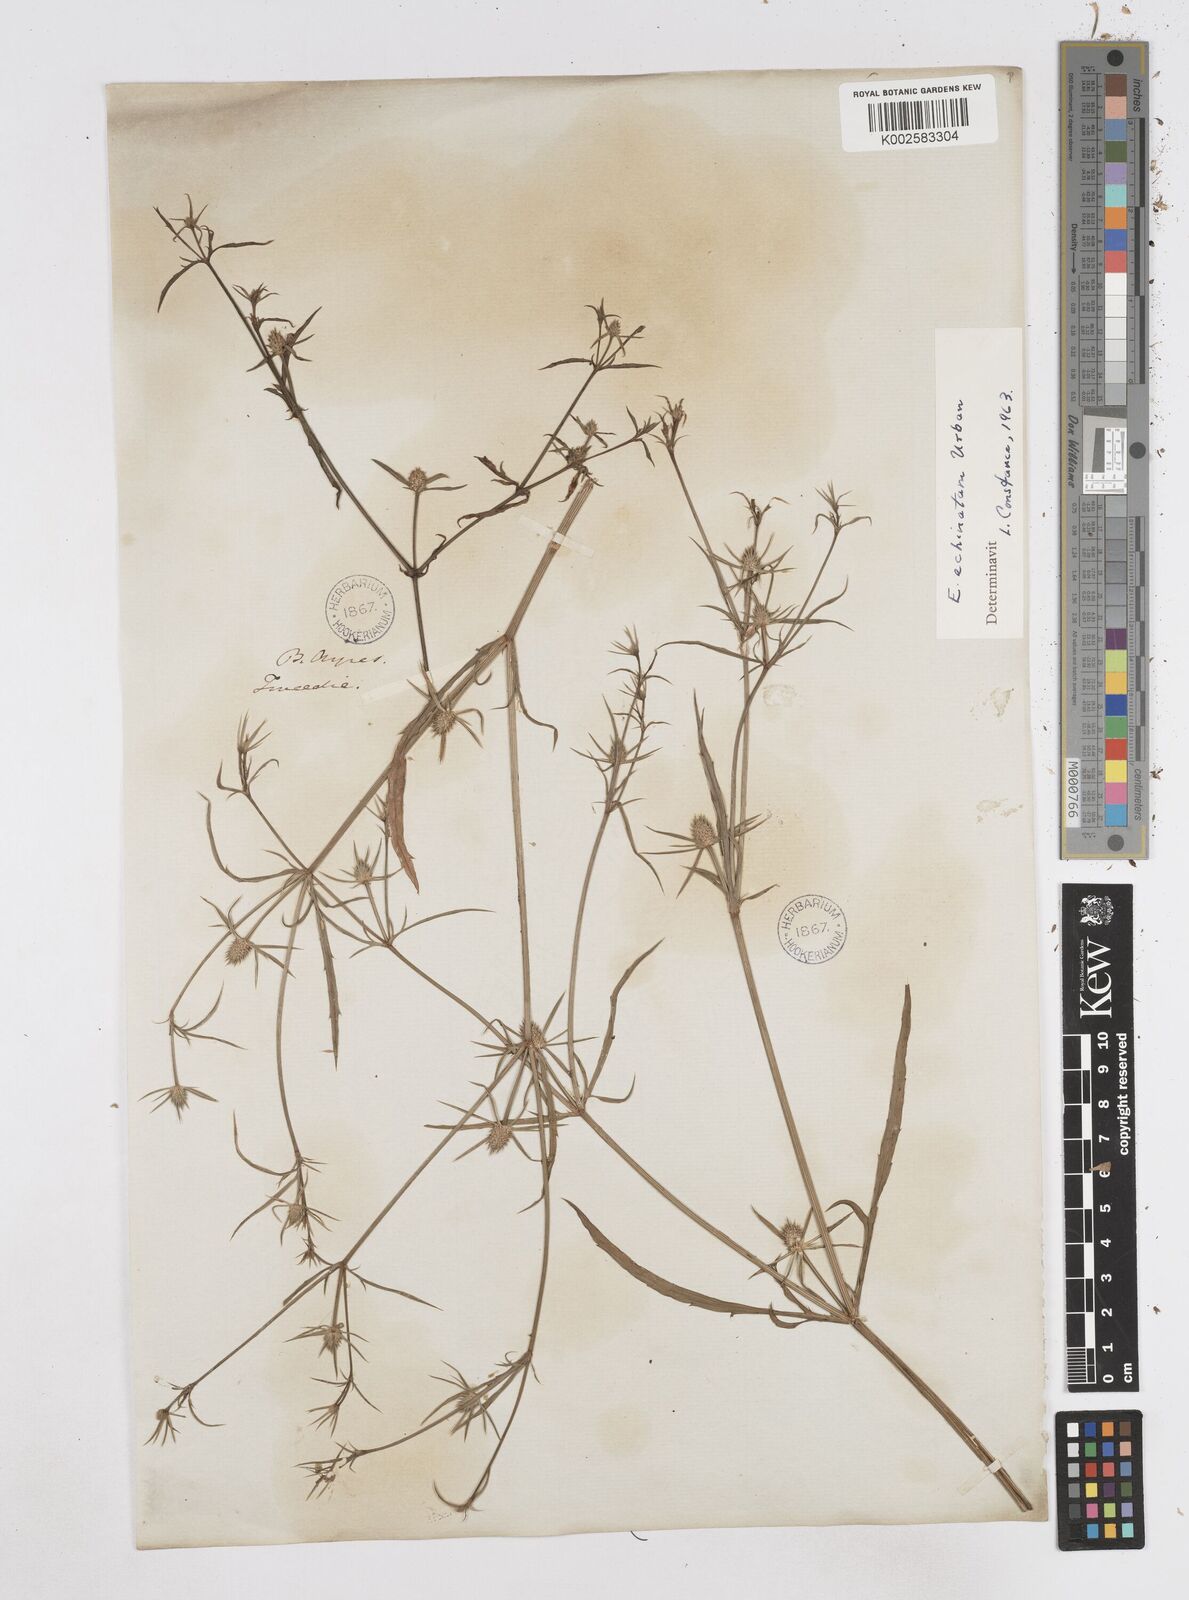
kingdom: Plantae
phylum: Tracheophyta
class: Magnoliopsida
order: Apiales
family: Apiaceae
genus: Eryngium
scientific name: Eryngium echinatum
